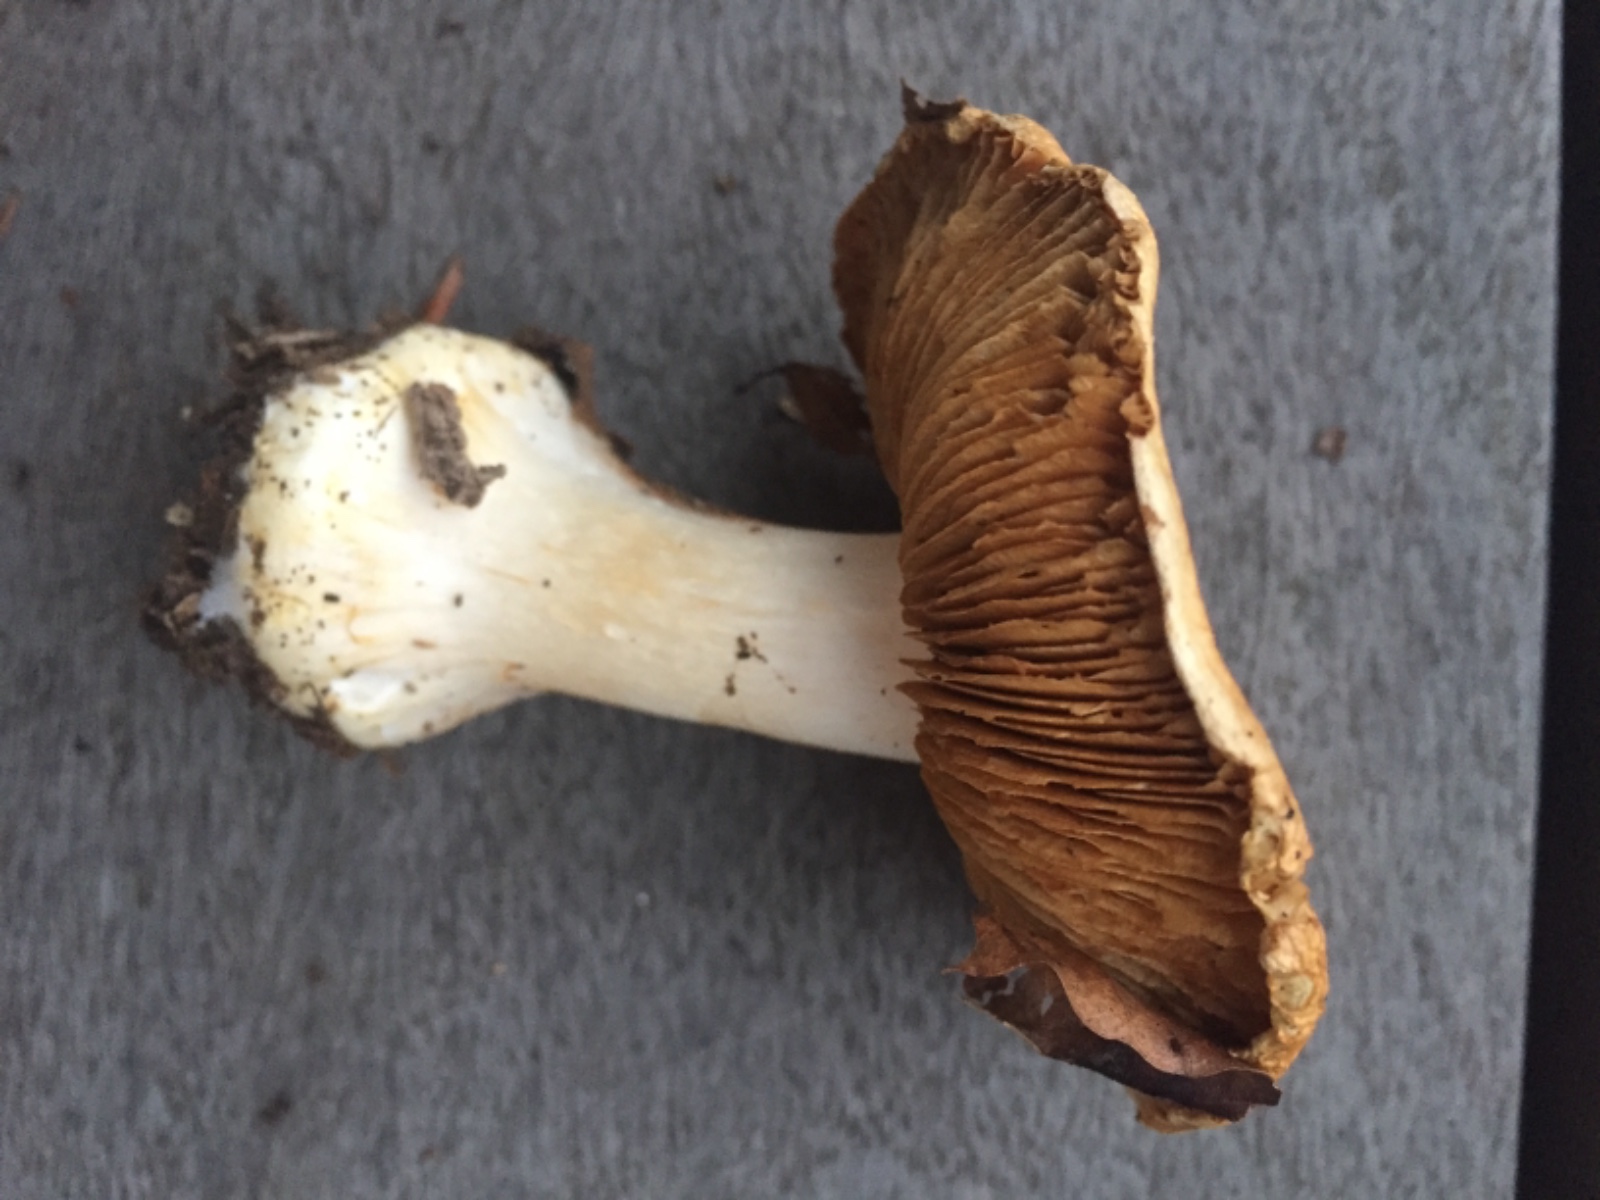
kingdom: Fungi
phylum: Basidiomycota
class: Agaricomycetes
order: Agaricales
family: Cortinariaceae
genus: Phlegmacium
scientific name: Phlegmacium rhizophorum
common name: finkornet slørhat
